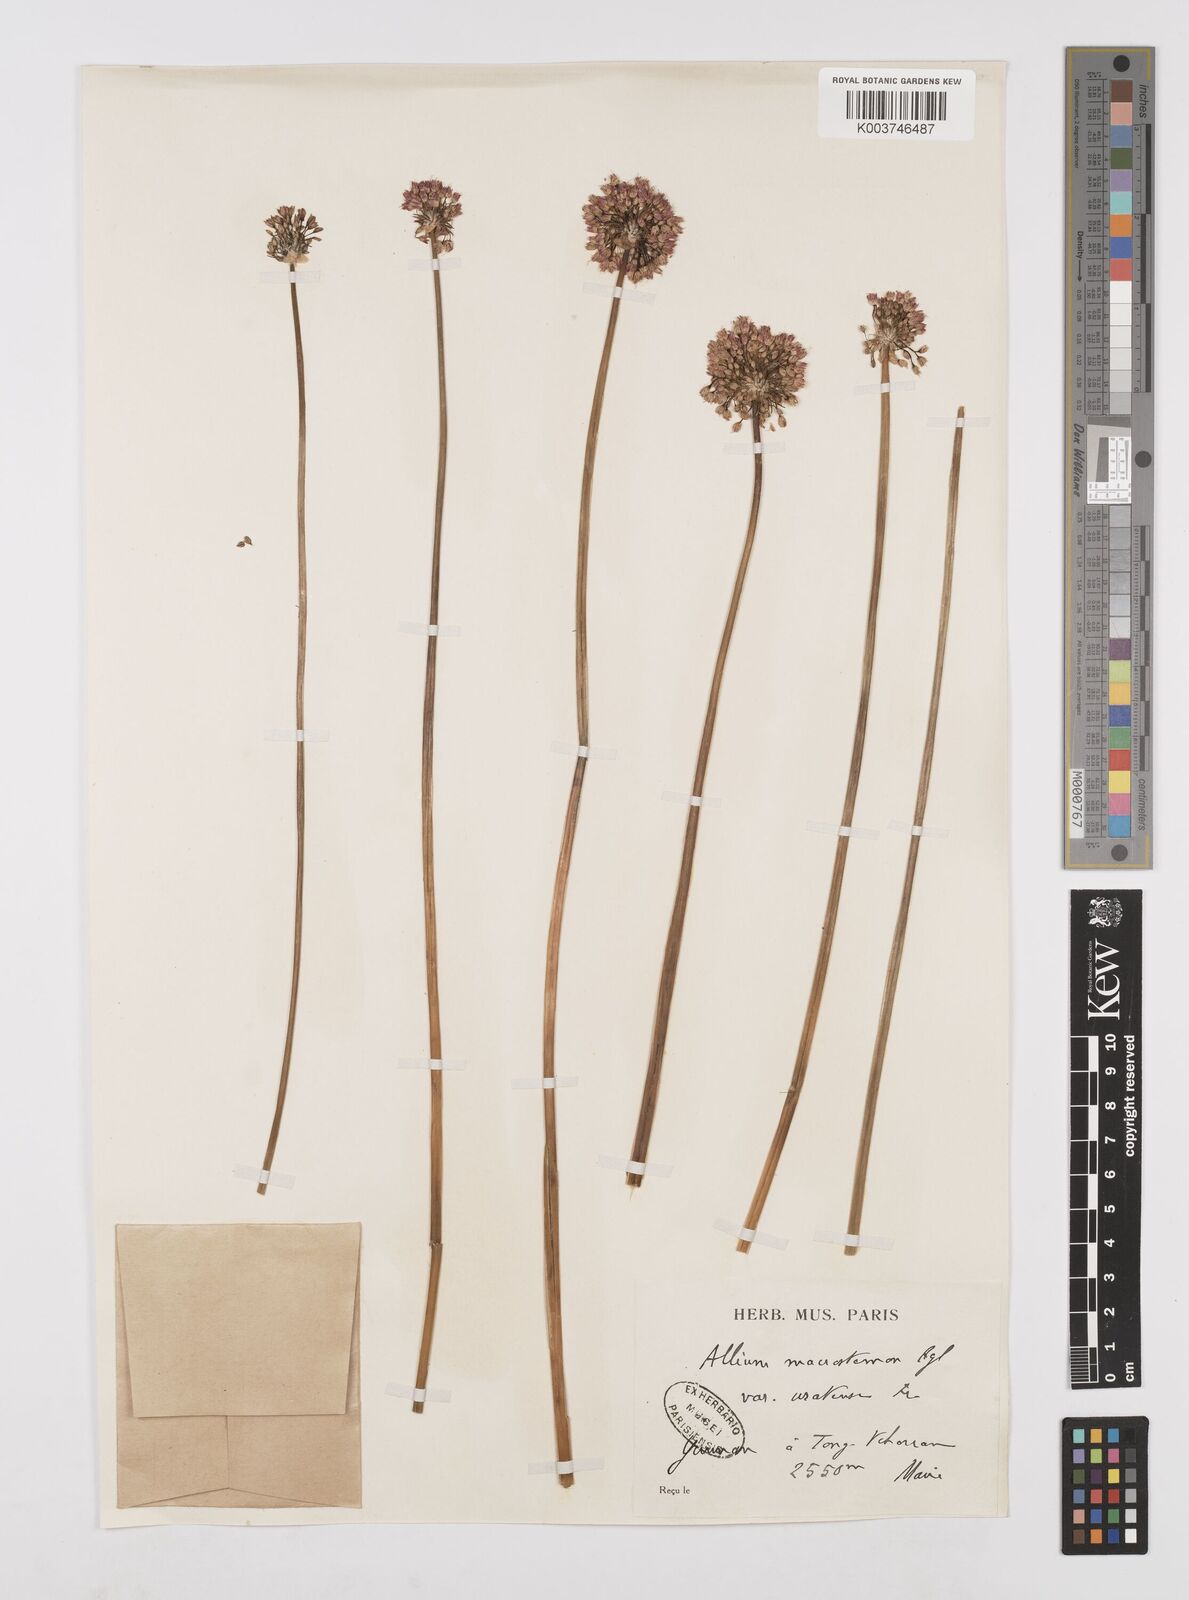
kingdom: Plantae
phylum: Tracheophyta
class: Liliopsida
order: Asparagales
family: Amaryllidaceae
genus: Allium
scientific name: Allium macrostemon
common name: Chinese garlic
